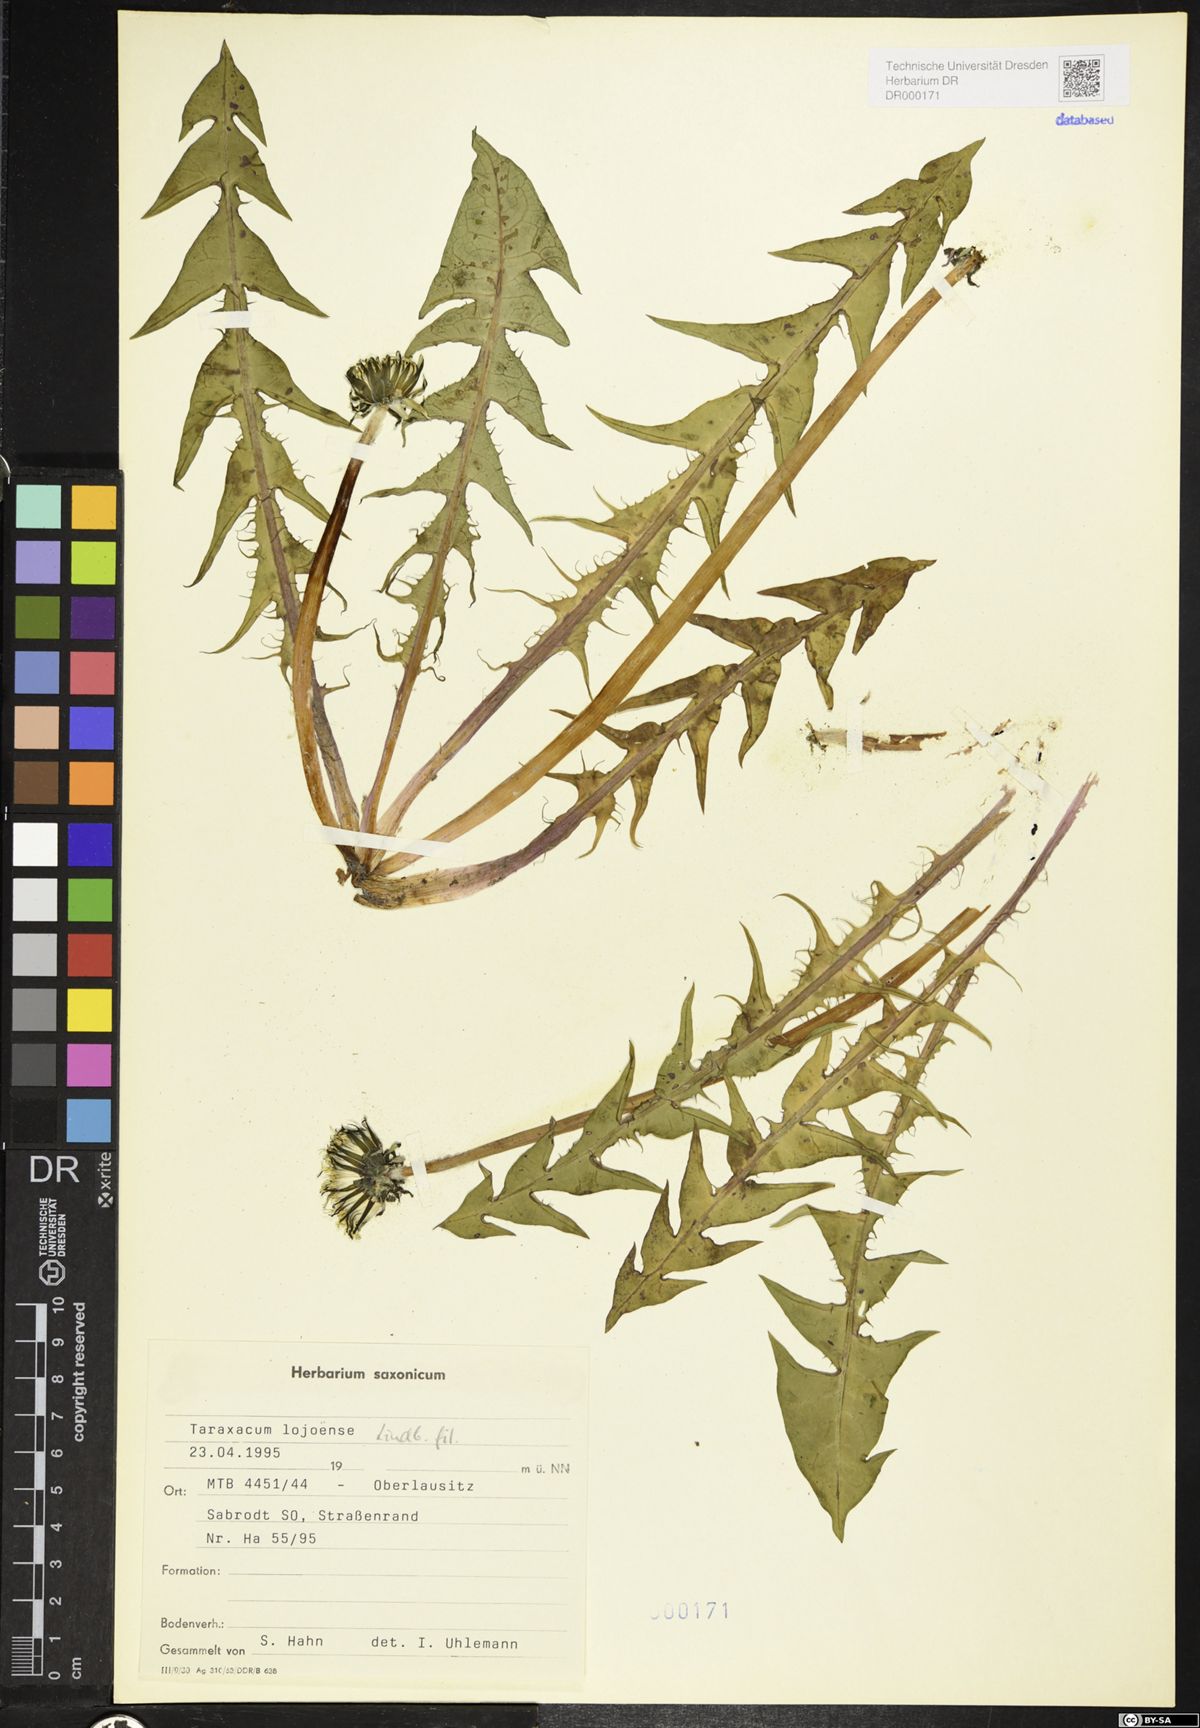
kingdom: Plantae
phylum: Tracheophyta
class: Magnoliopsida
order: Asterales
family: Asteraceae
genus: Taraxacum
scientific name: Taraxacum debrayi
